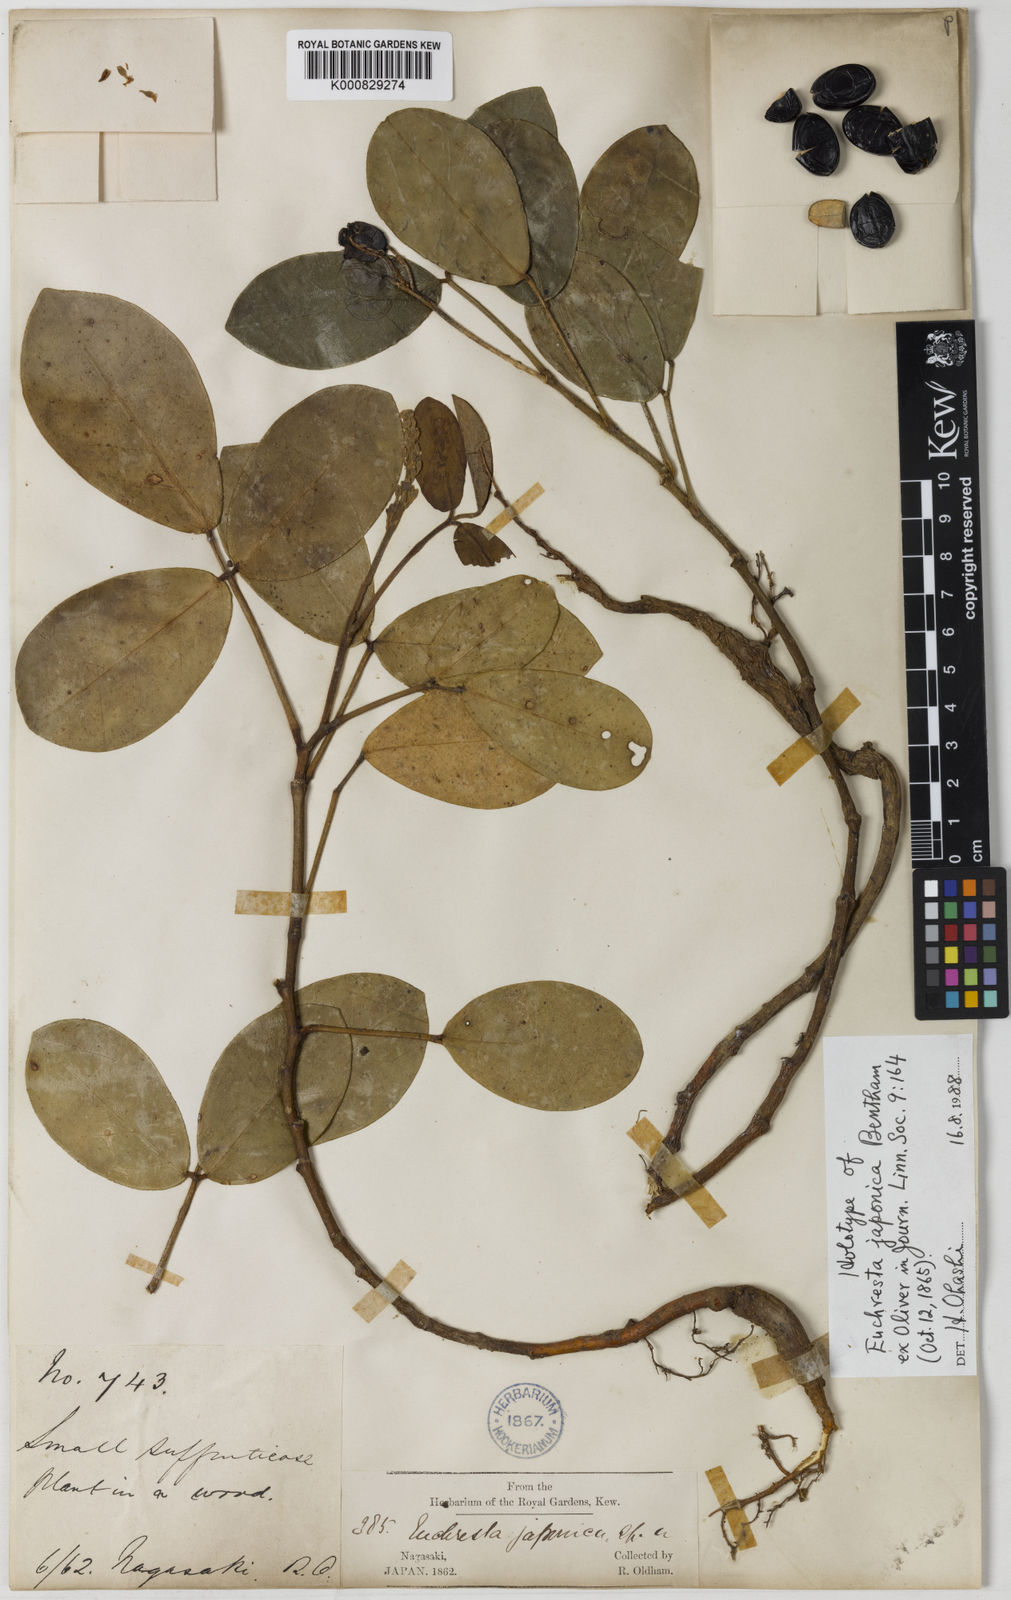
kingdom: Plantae
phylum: Tracheophyta
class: Magnoliopsida
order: Fabales
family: Fabaceae
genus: Euchresta
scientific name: Euchresta
